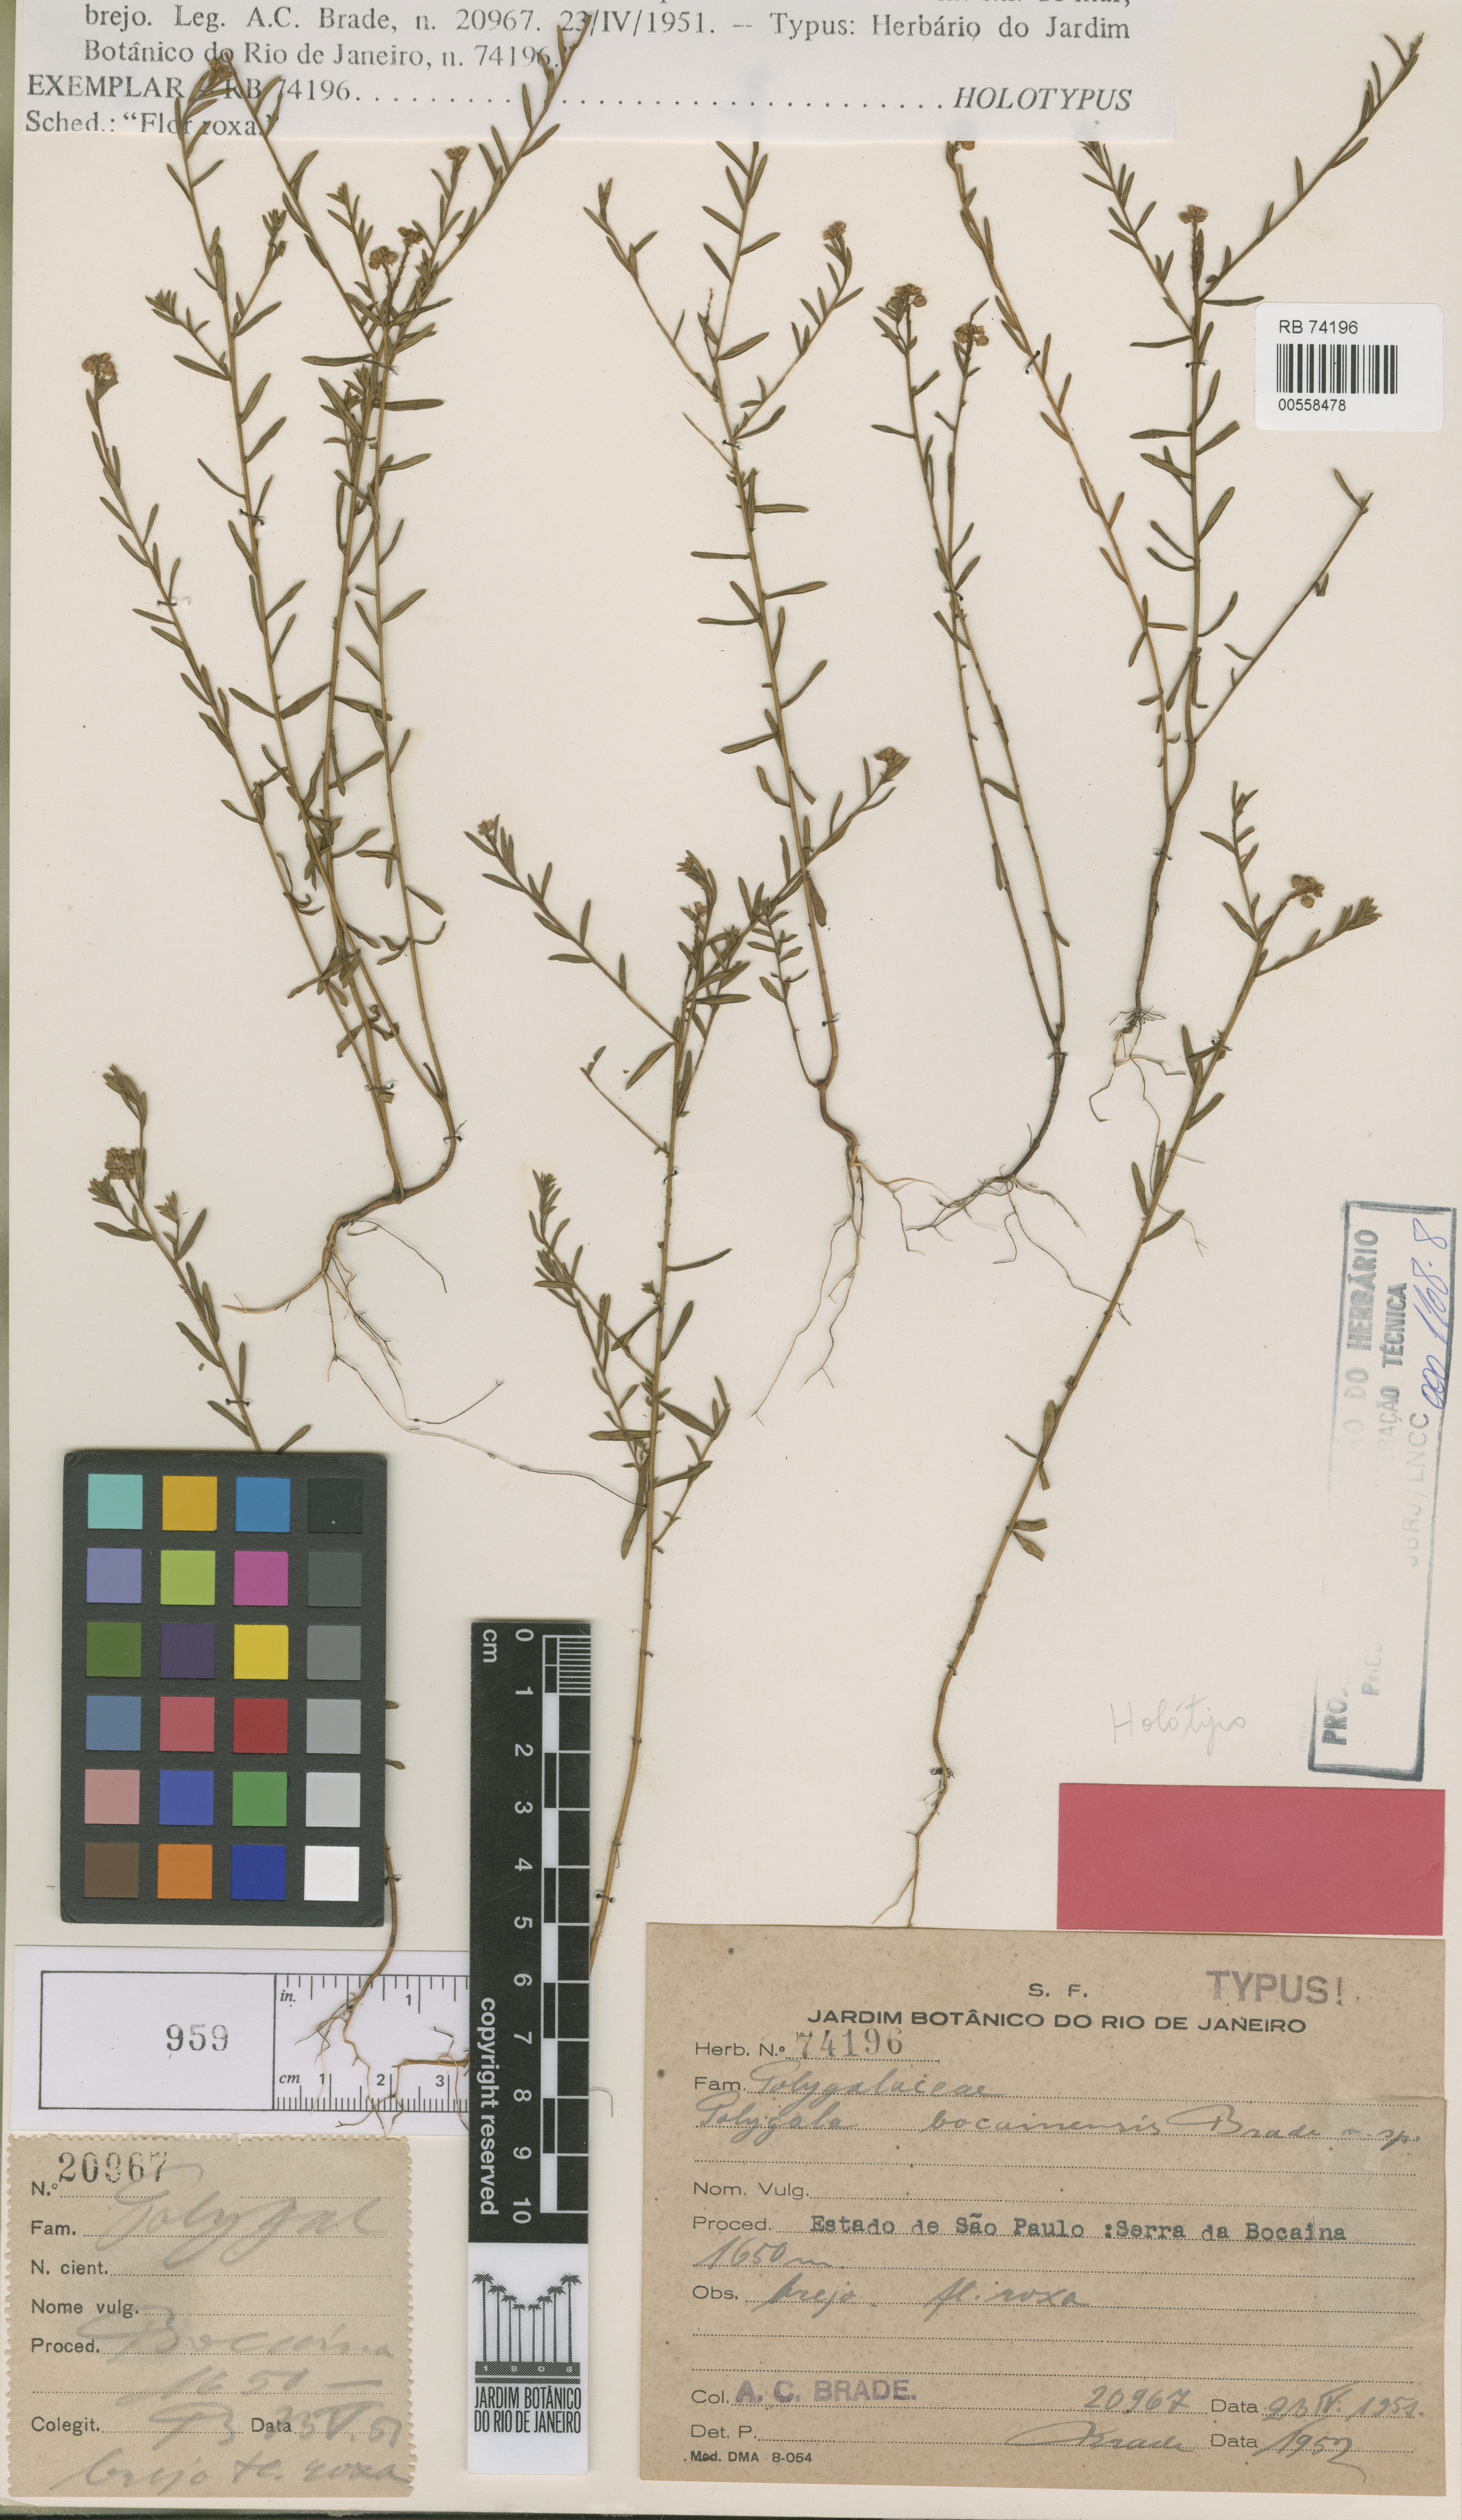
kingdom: Plantae
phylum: Tracheophyta
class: Magnoliopsida
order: Fabales
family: Polygalaceae
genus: Polygala
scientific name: Polygala bocainensis
